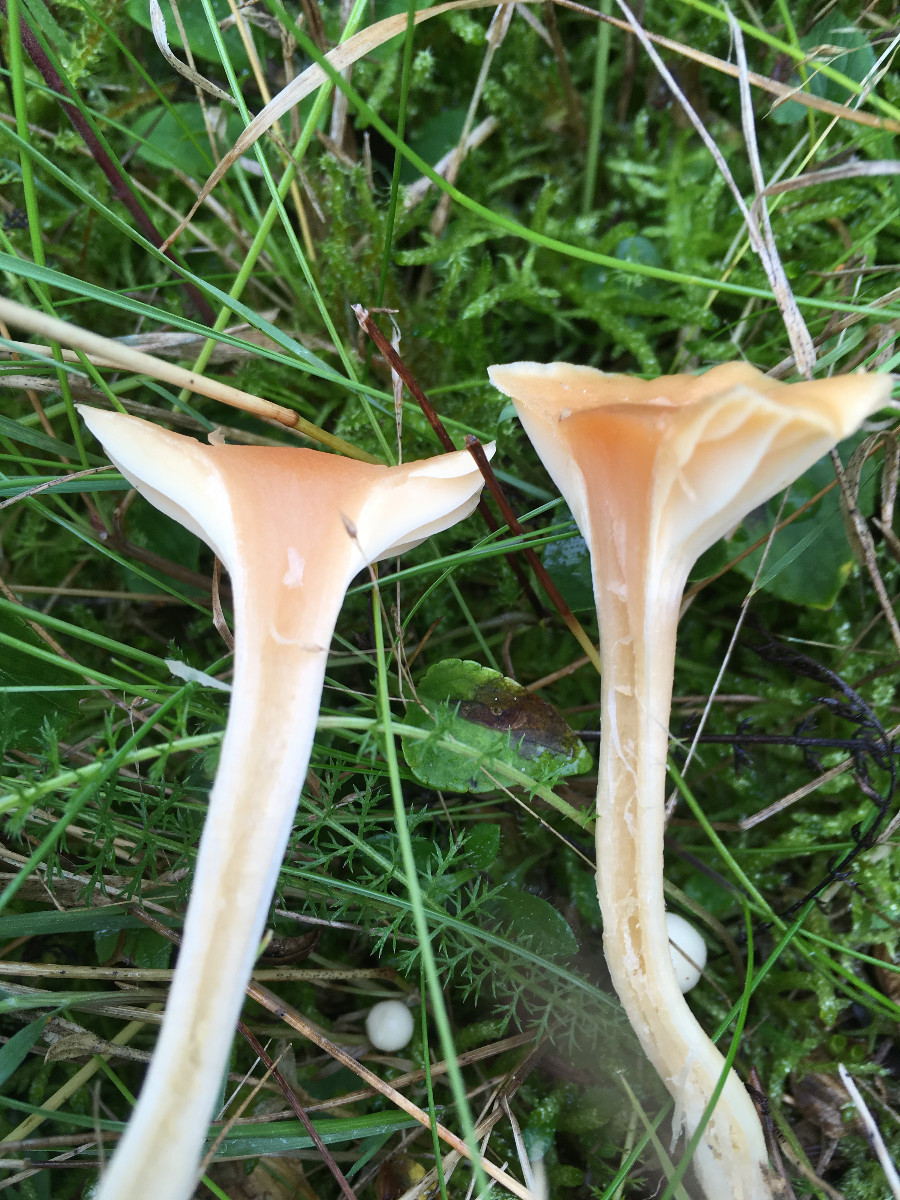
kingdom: Fungi
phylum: Basidiomycota
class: Agaricomycetes
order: Agaricales
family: Hygrophoraceae
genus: Cuphophyllus
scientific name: Cuphophyllus pratensis
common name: eng-vokshat
